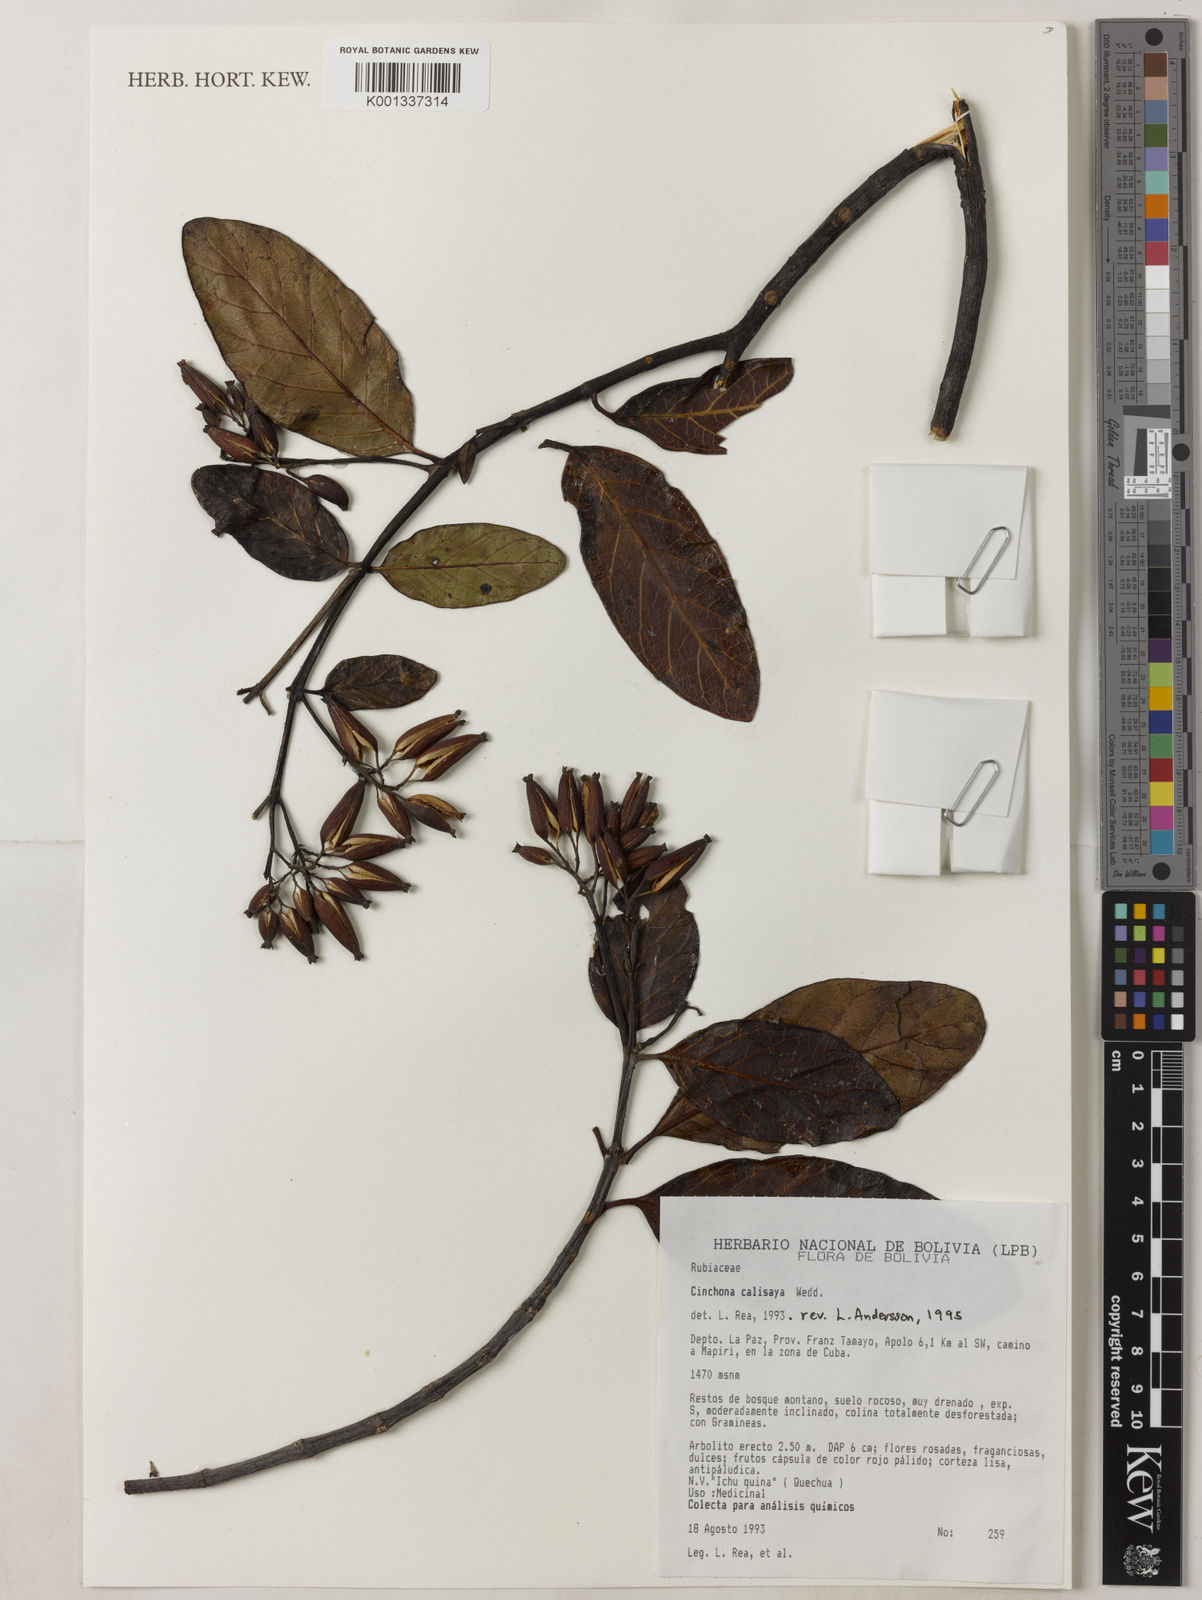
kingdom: Plantae
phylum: Tracheophyta
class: Magnoliopsida
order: Gentianales
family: Rubiaceae
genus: Cinchona
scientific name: Cinchona calisaya
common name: Ledgerbark
